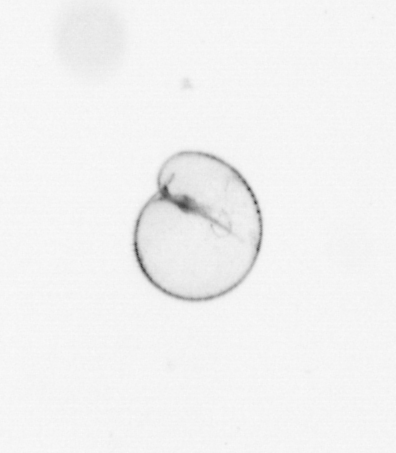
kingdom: Chromista
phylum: Myzozoa
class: Dinophyceae
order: Noctilucales
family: Noctilucaceae
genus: Noctiluca
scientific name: Noctiluca scintillans
